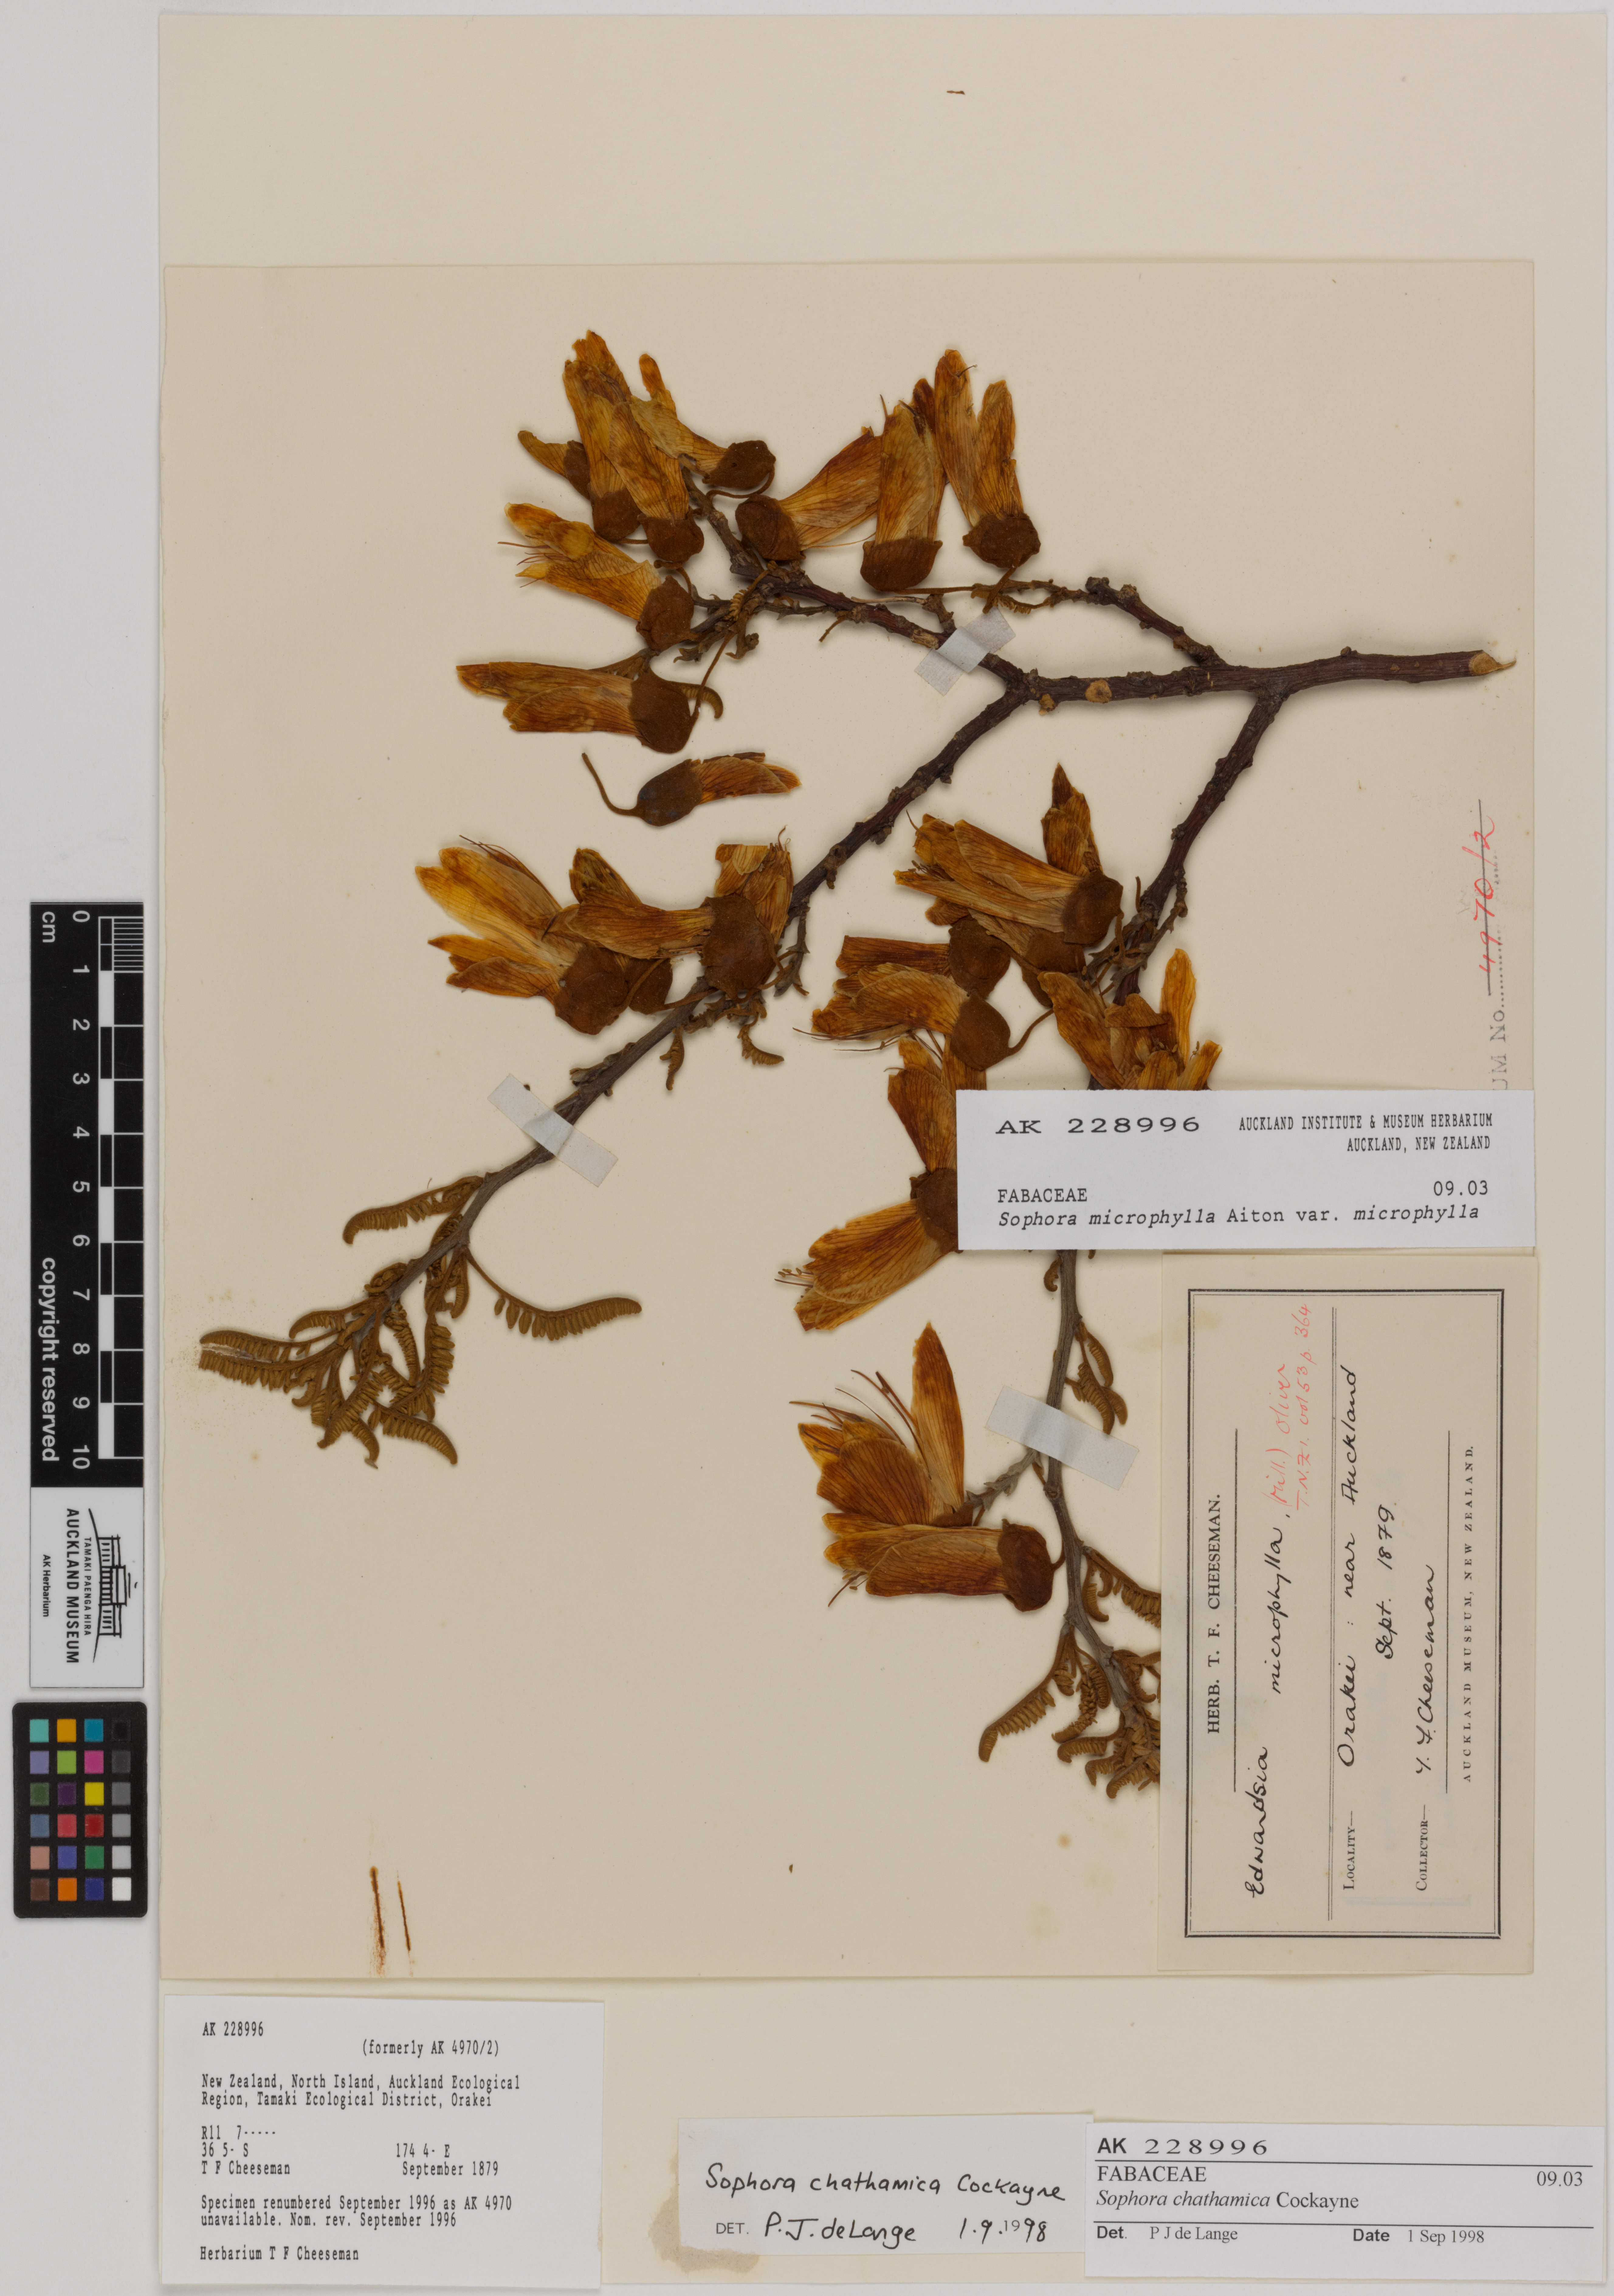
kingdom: Plantae
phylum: Tracheophyta
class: Magnoliopsida
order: Fabales
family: Fabaceae
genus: Sophora
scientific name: Sophora chathamica
